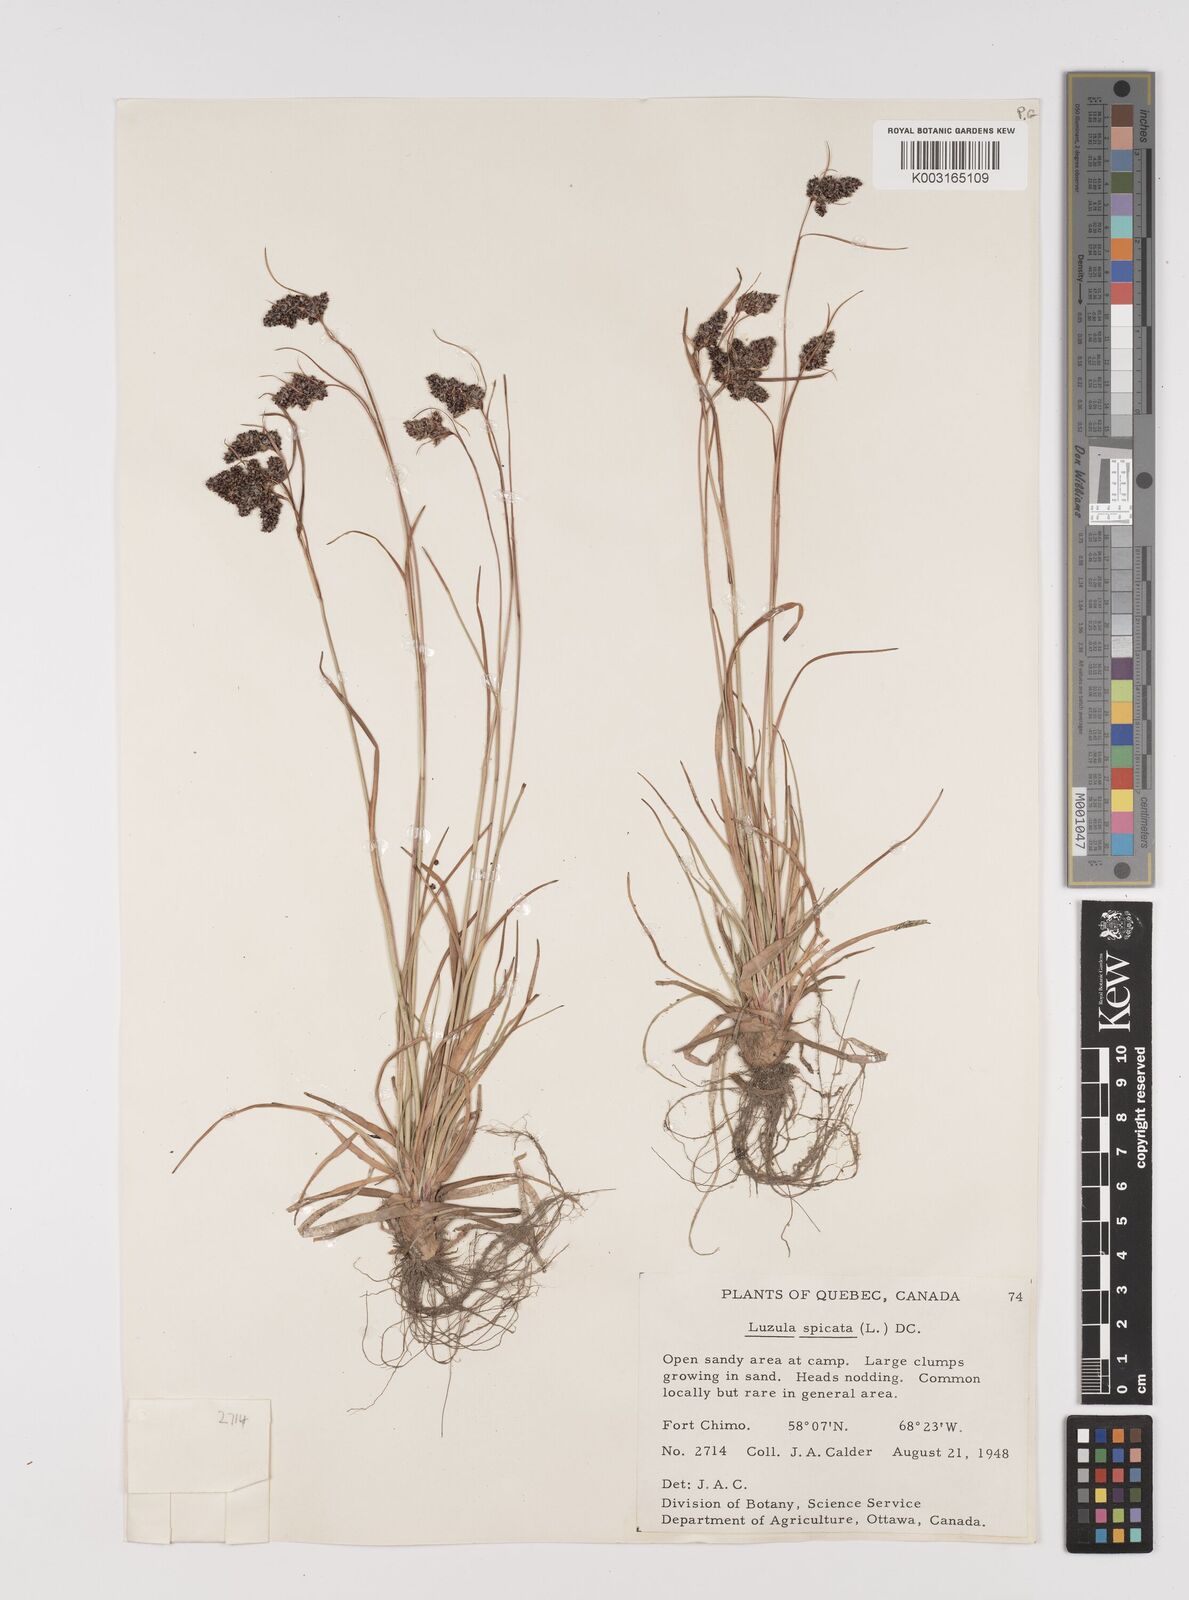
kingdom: Plantae
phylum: Tracheophyta
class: Liliopsida
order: Poales
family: Juncaceae
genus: Luzula
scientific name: Luzula spicata
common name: Spiked wood-rush
